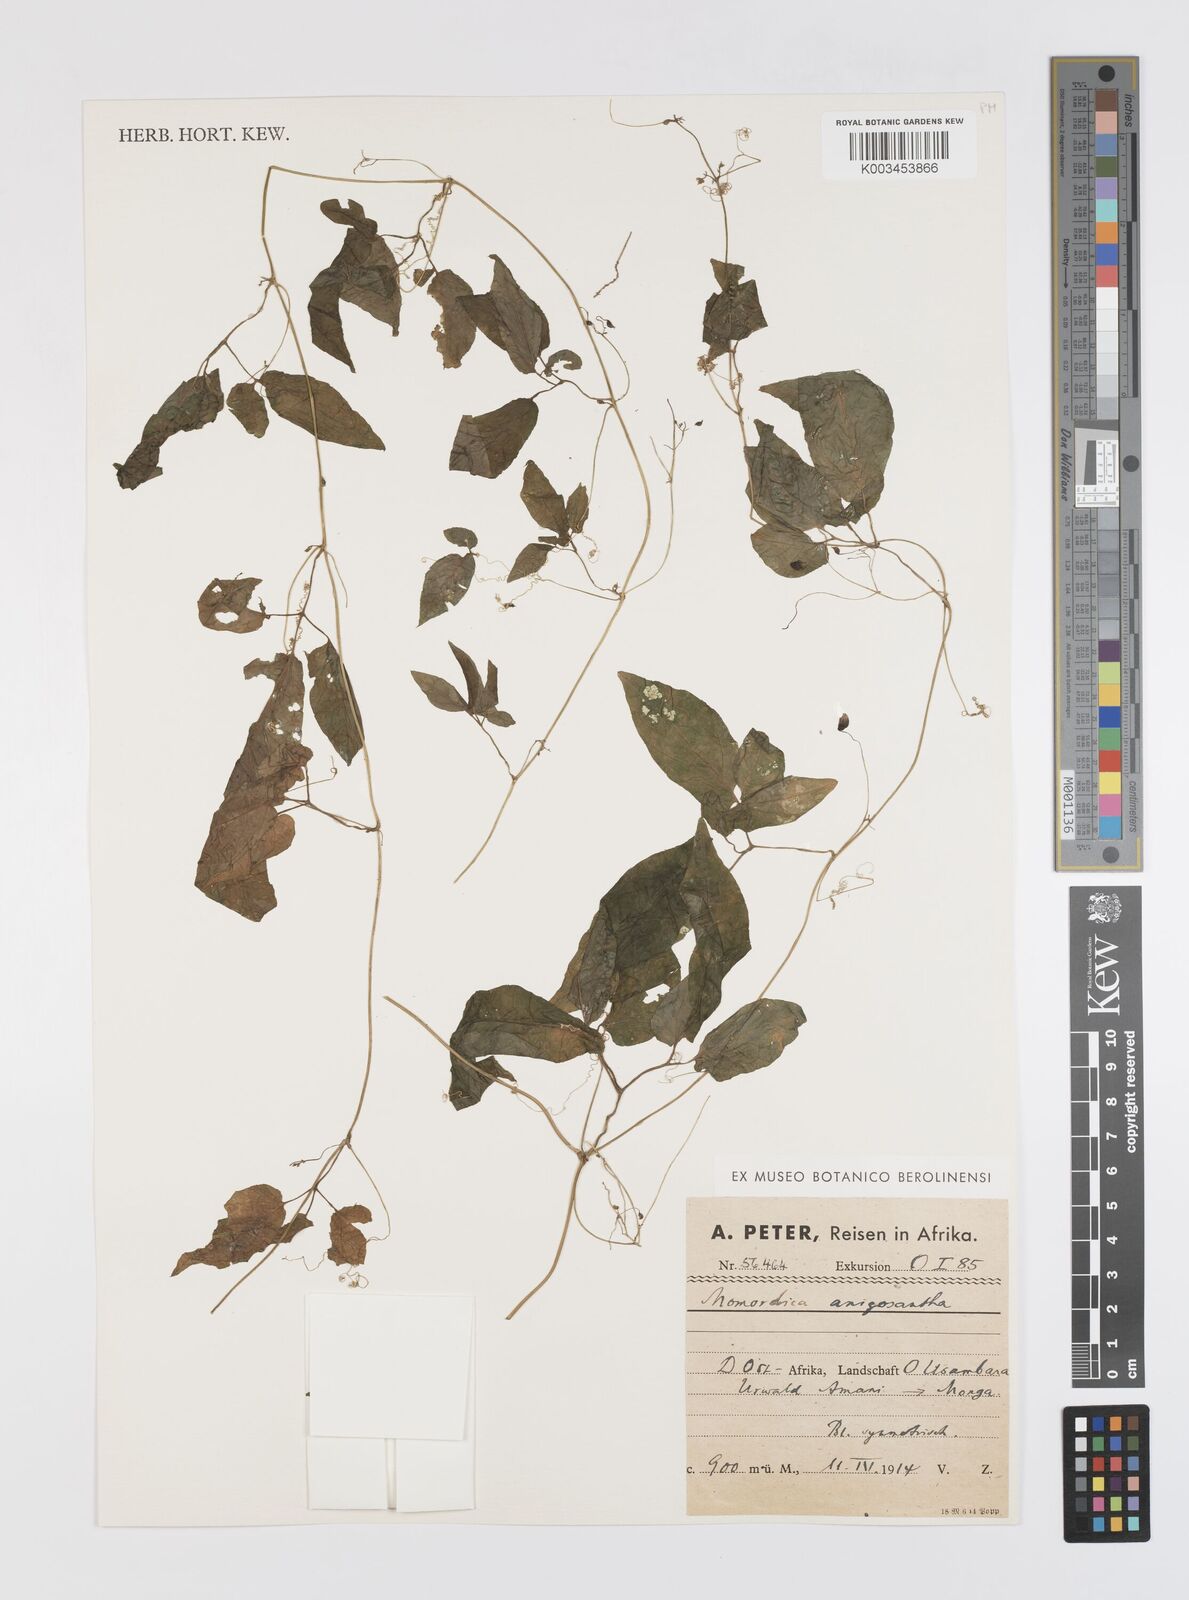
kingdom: Plantae
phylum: Tracheophyta
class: Magnoliopsida
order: Cucurbitales
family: Cucurbitaceae
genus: Momordica
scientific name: Momordica anigosantha
